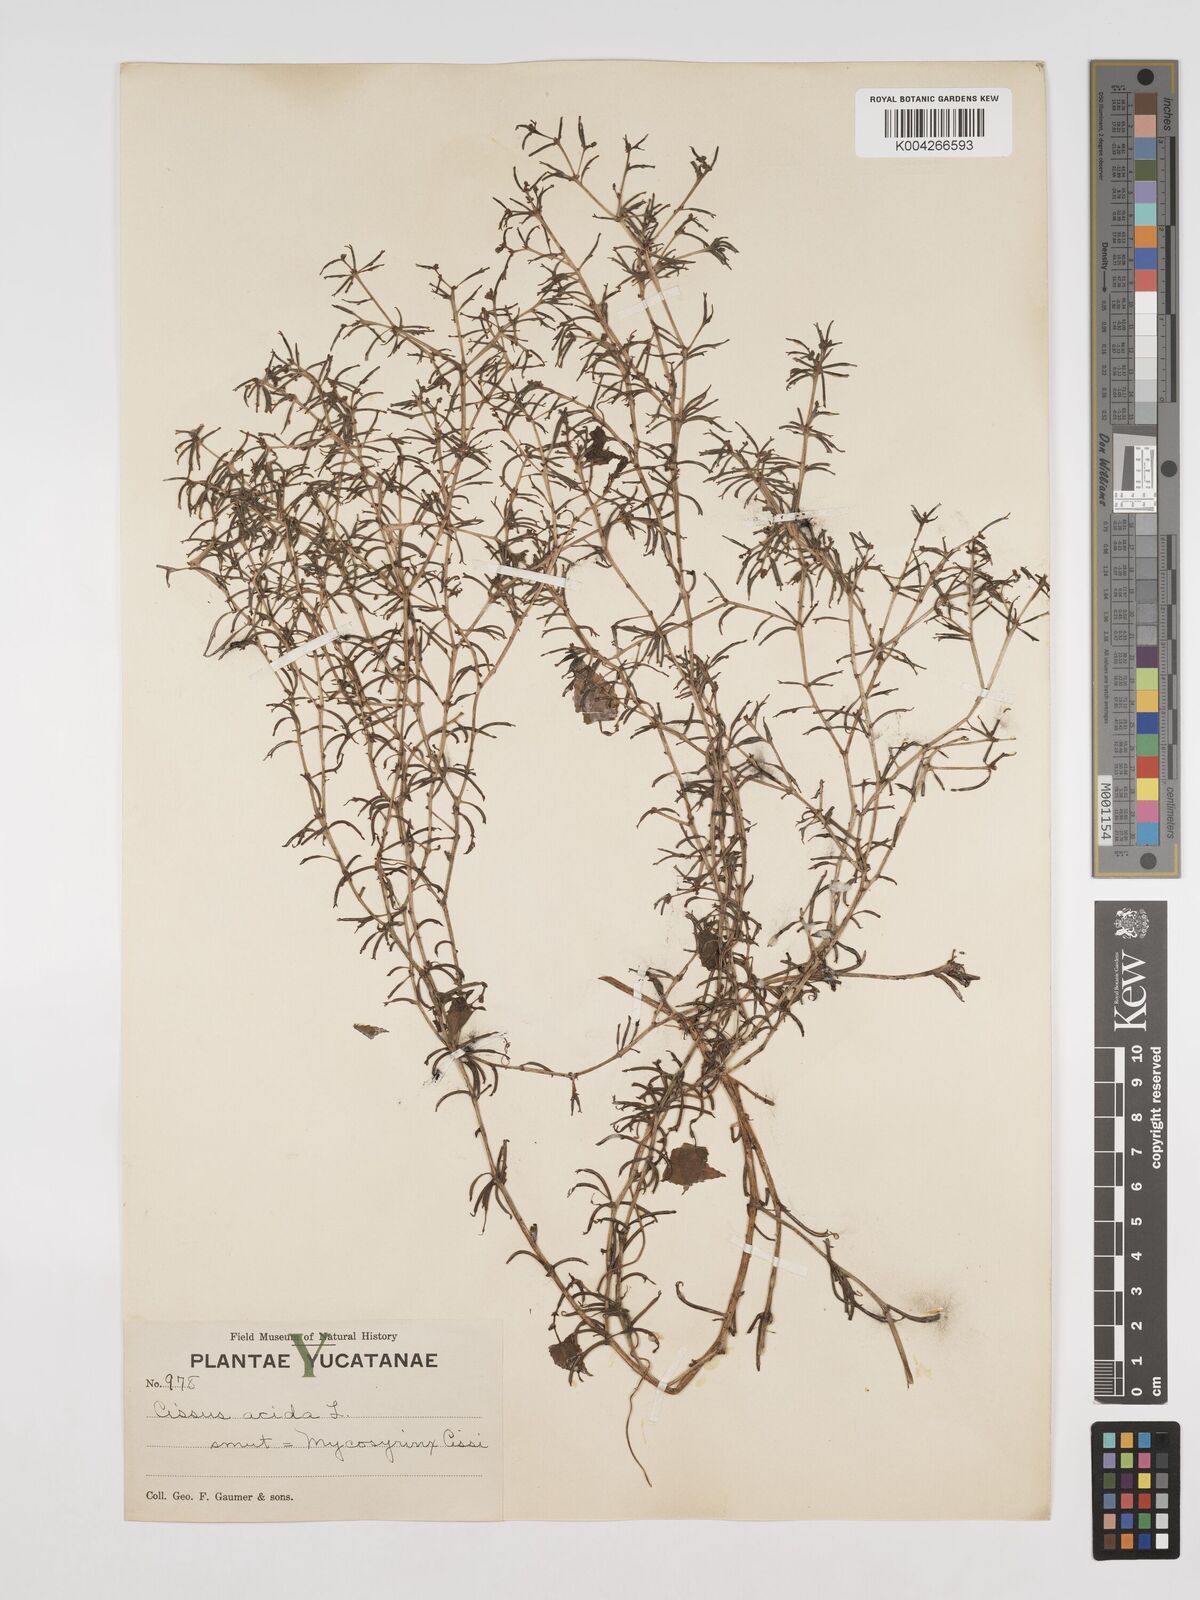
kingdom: Plantae
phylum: Tracheophyta
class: Magnoliopsida
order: Vitales
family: Vitaceae
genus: Cissus
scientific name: Cissus trifoliata
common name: Vine-sorrel
